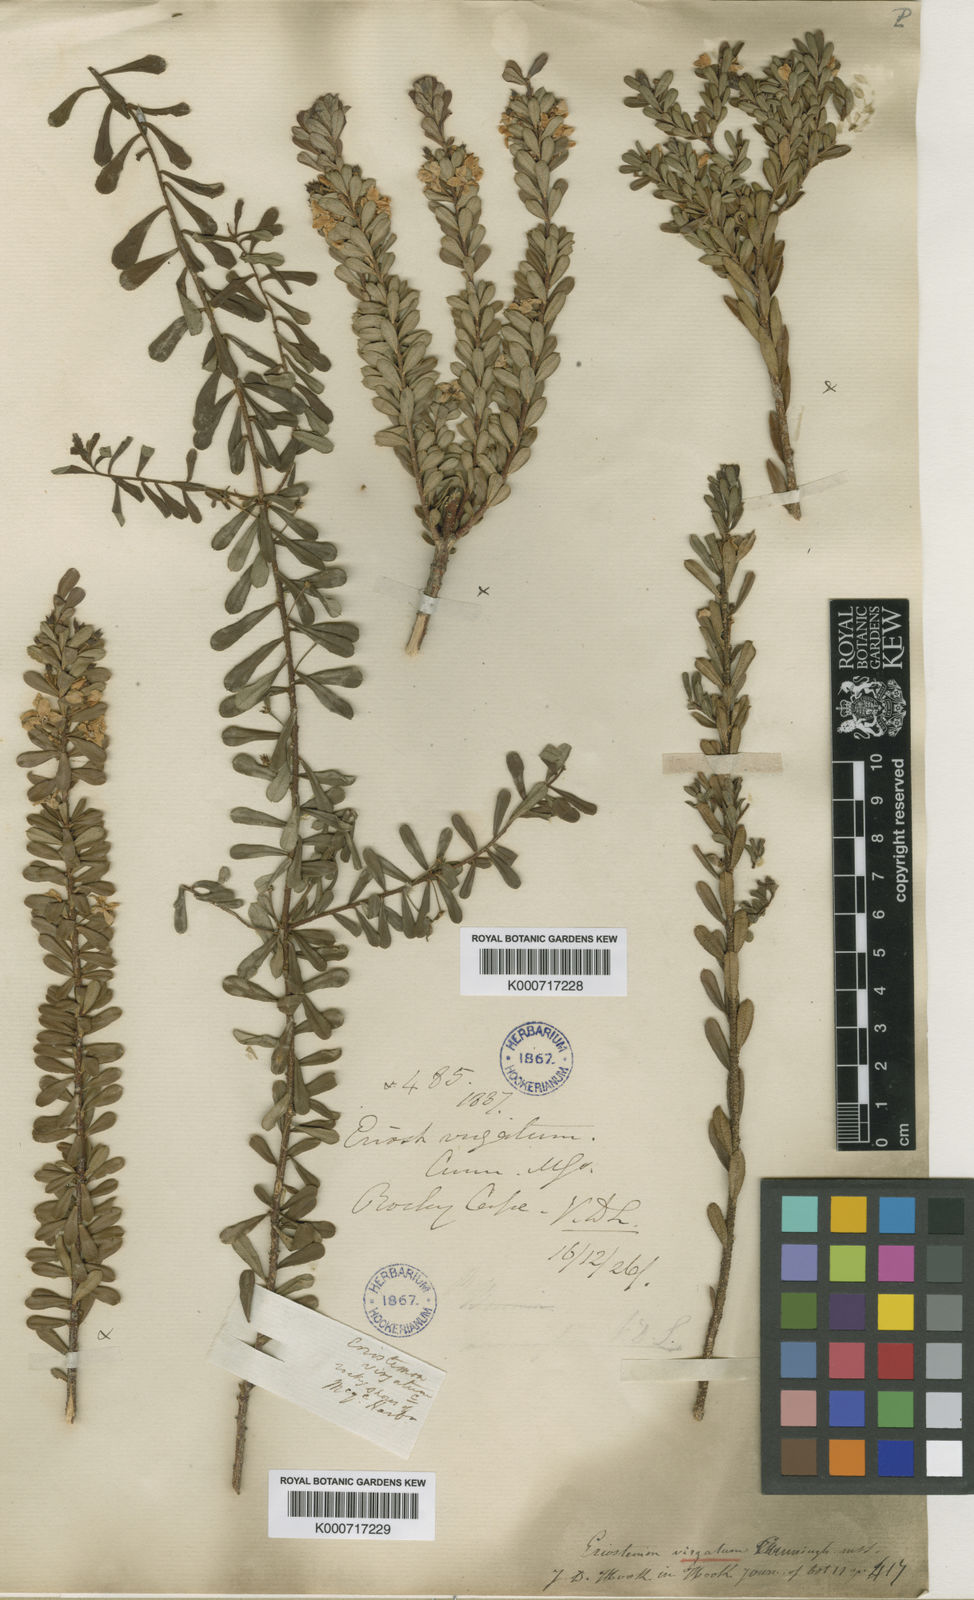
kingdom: Plantae
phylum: Tracheophyta
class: Magnoliopsida
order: Sapindales
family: Rutaceae
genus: Philotheca
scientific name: Philotheca virgata
